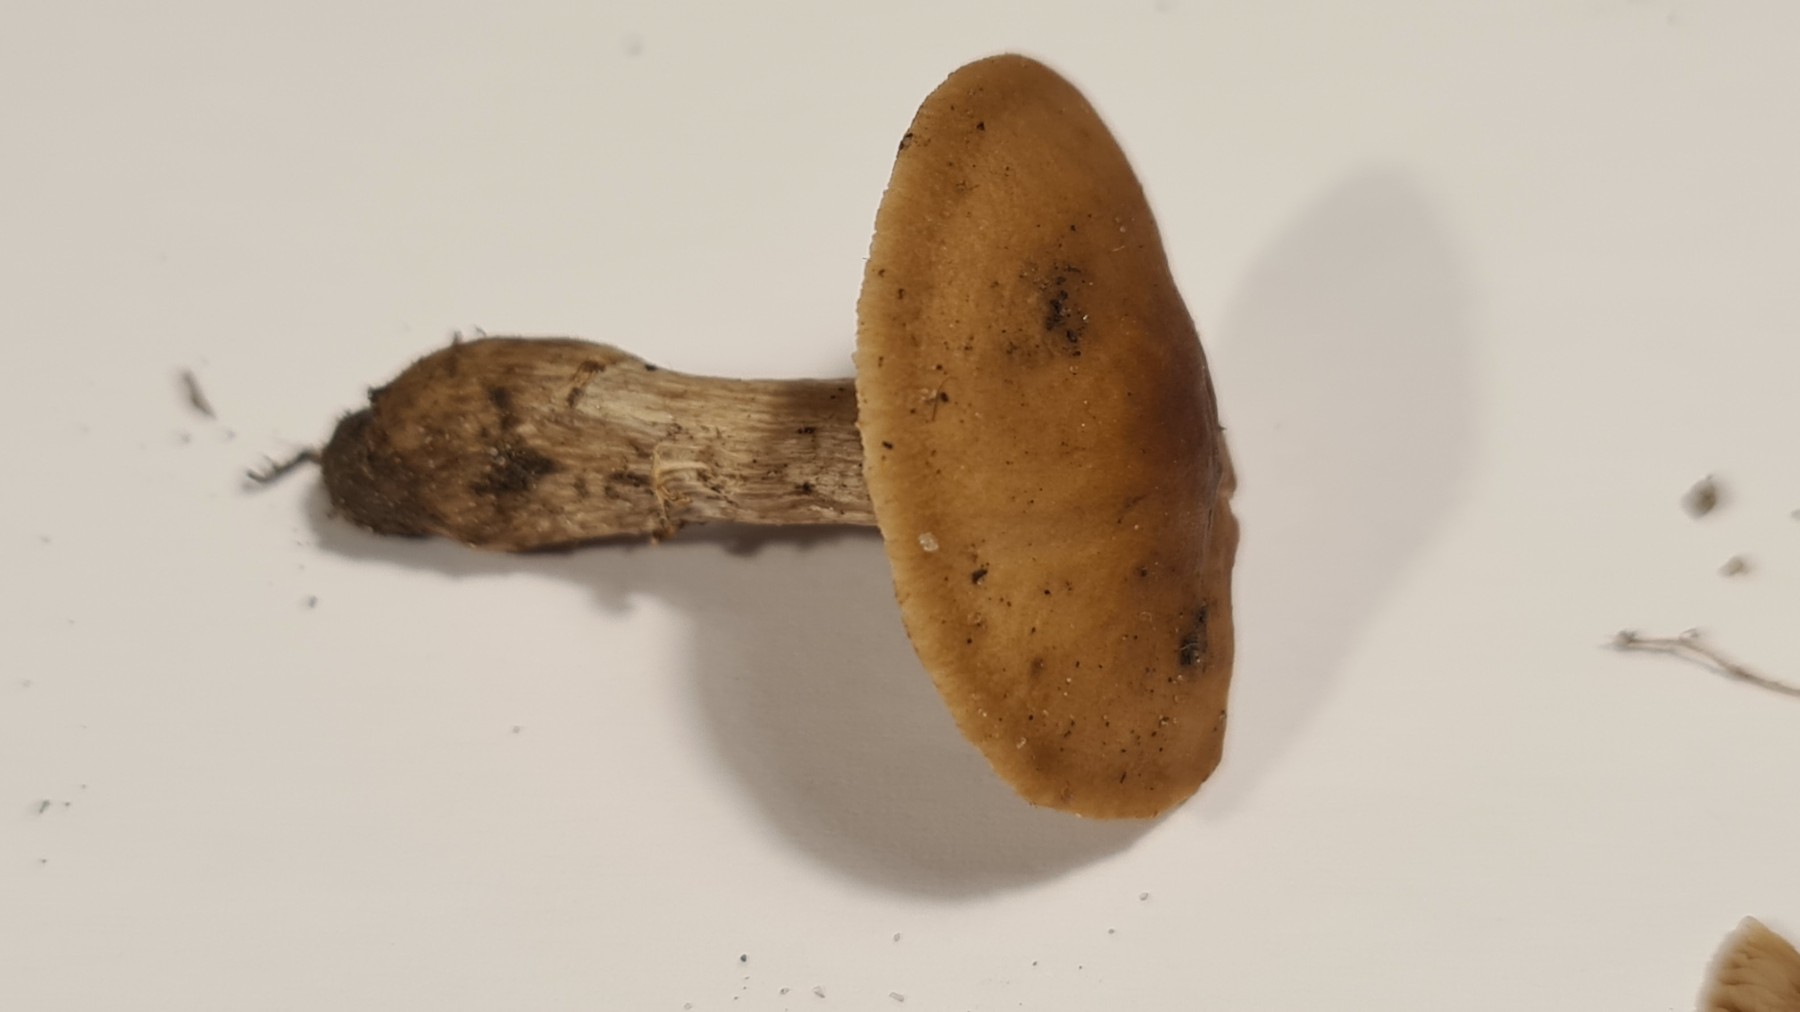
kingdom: Fungi
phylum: Basidiomycota
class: Agaricomycetes
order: Agaricales
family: Tubariaceae
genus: Cyclocybe
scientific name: Cyclocybe erebia
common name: mørk agerhat
